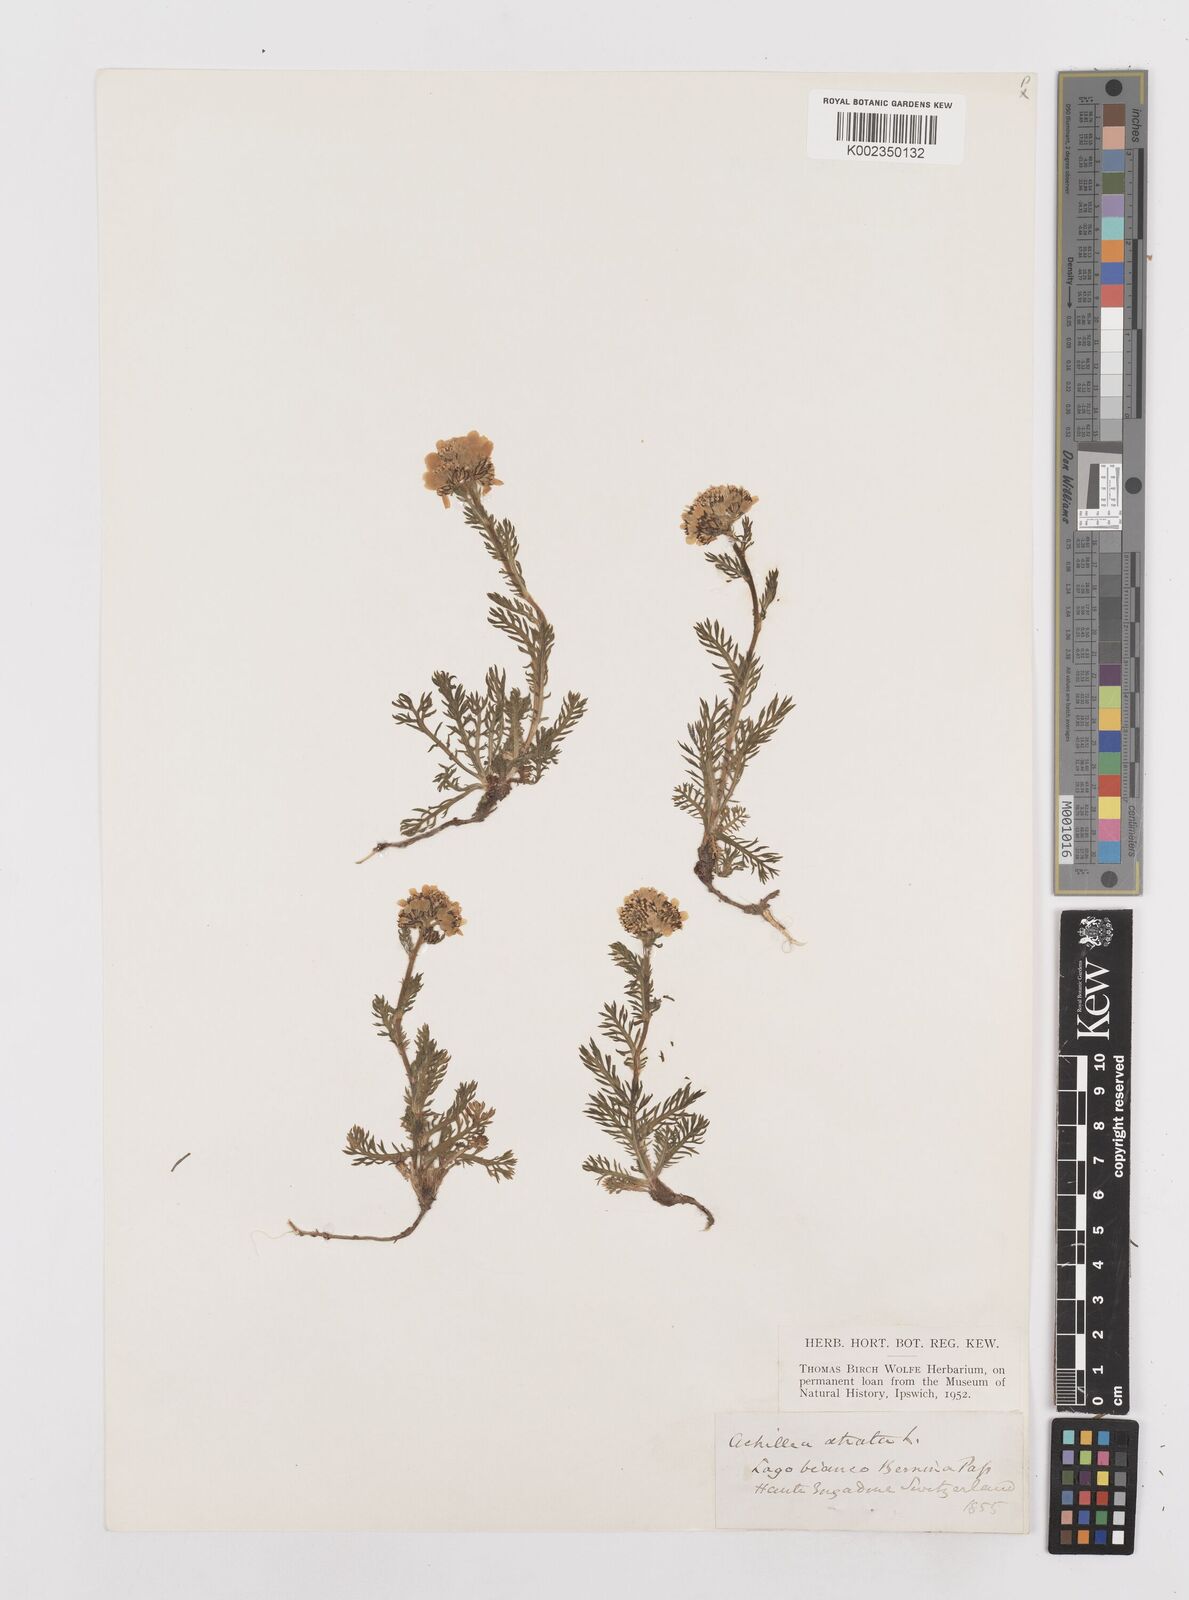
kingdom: Plantae
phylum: Tracheophyta
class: Magnoliopsida
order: Asterales
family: Asteraceae
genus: Achillea
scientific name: Achillea atrata
